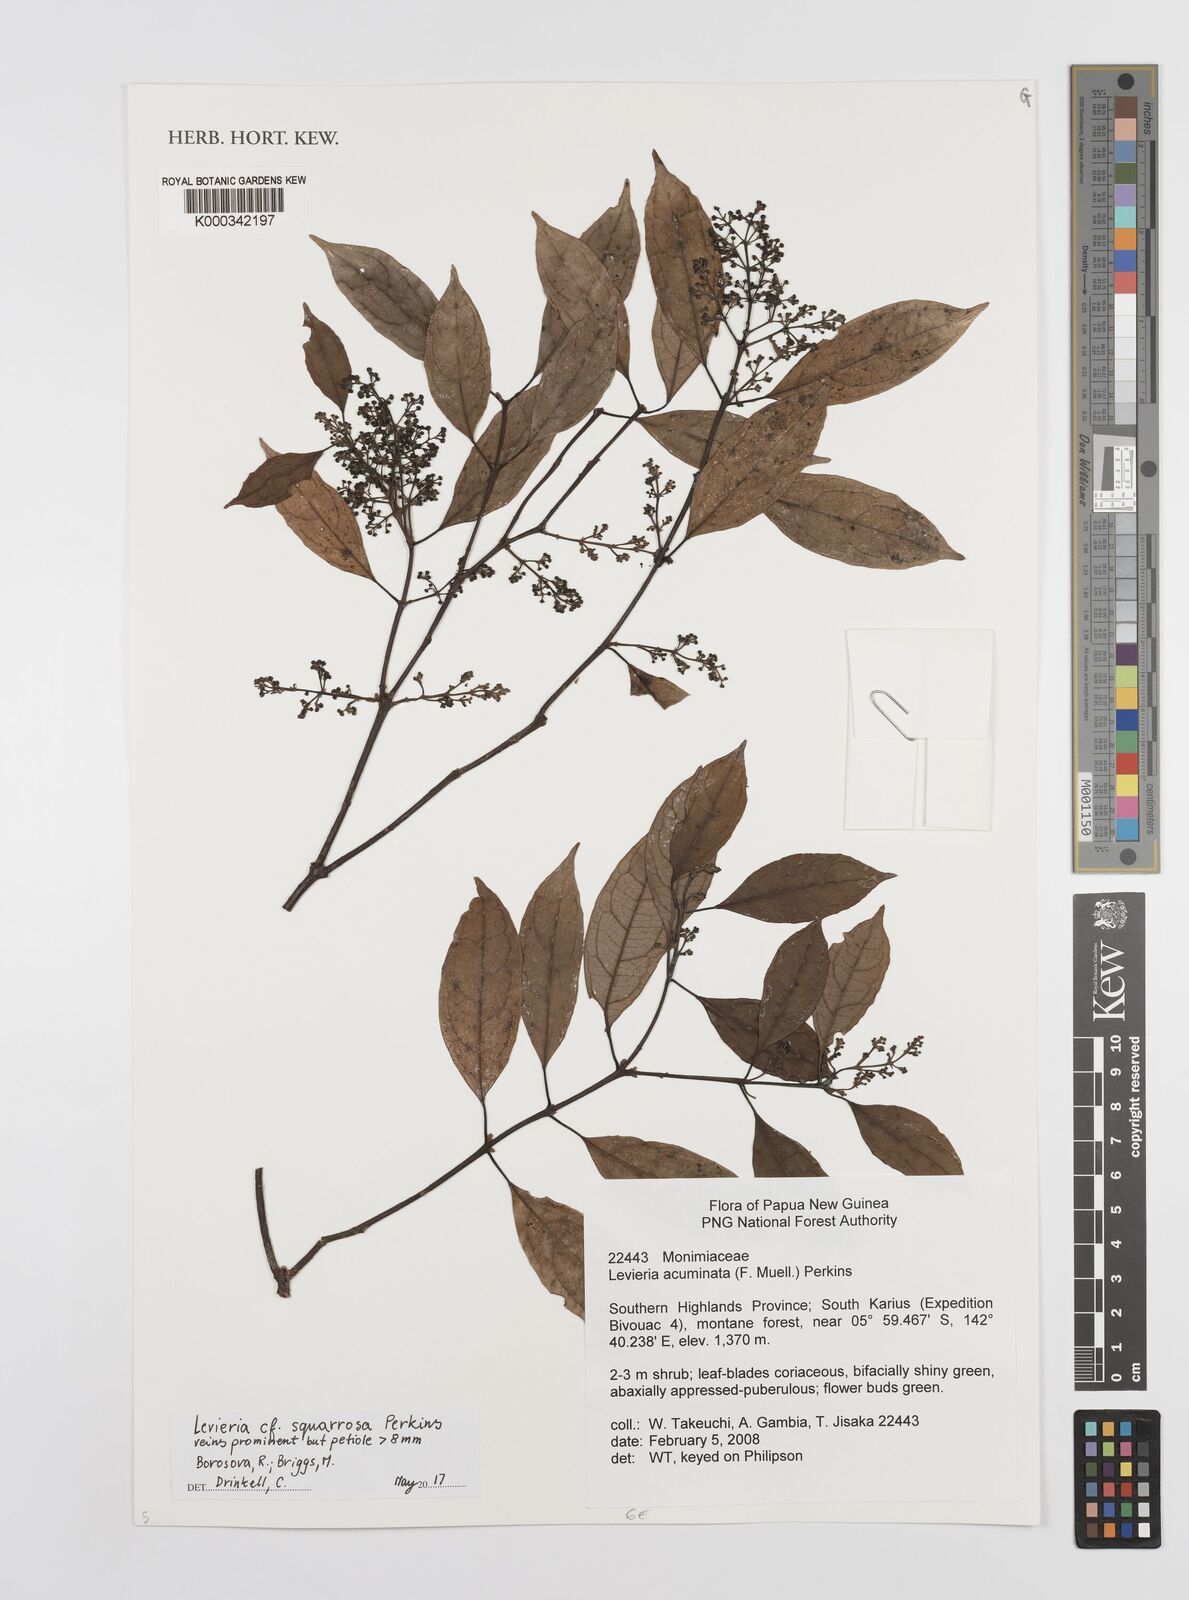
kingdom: Plantae
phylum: Tracheophyta
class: Magnoliopsida
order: Laurales
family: Monimiaceae
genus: Levieria
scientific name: Levieria squarrosa
